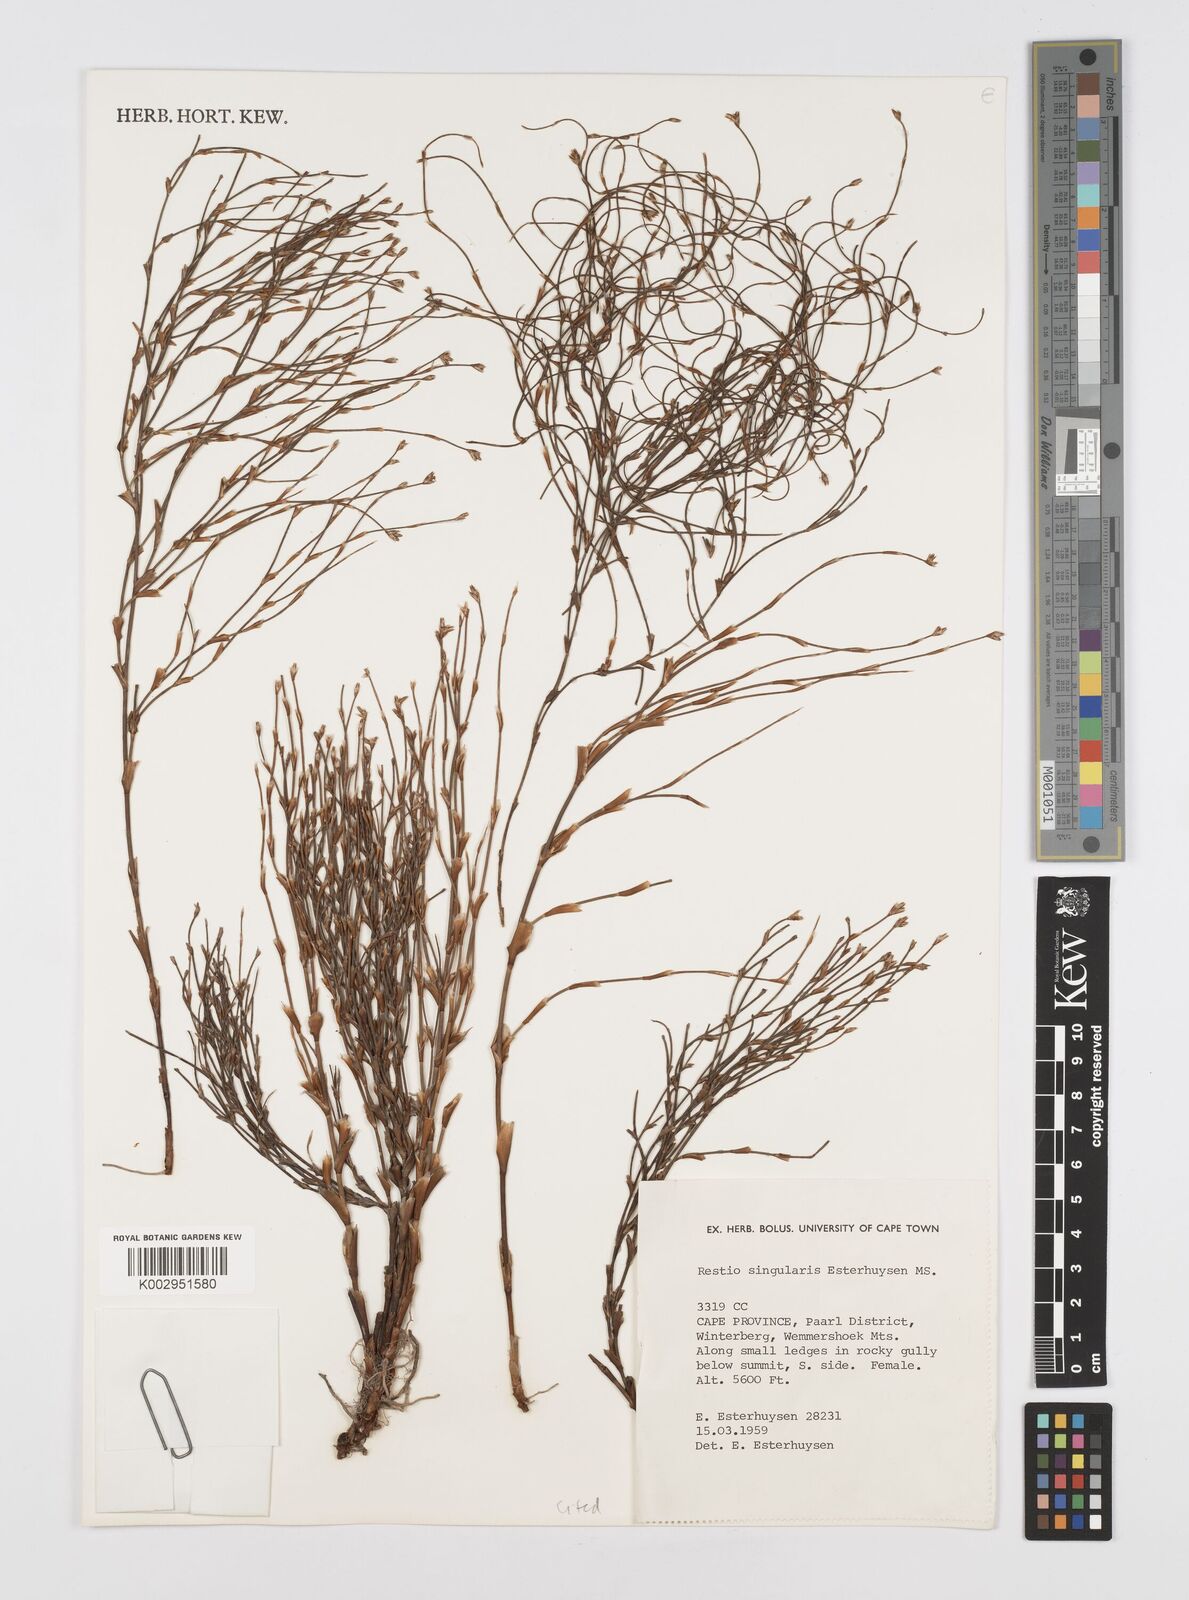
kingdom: Plantae
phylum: Tracheophyta
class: Liliopsida
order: Poales
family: Restionaceae
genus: Restio
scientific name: Restio singularis
